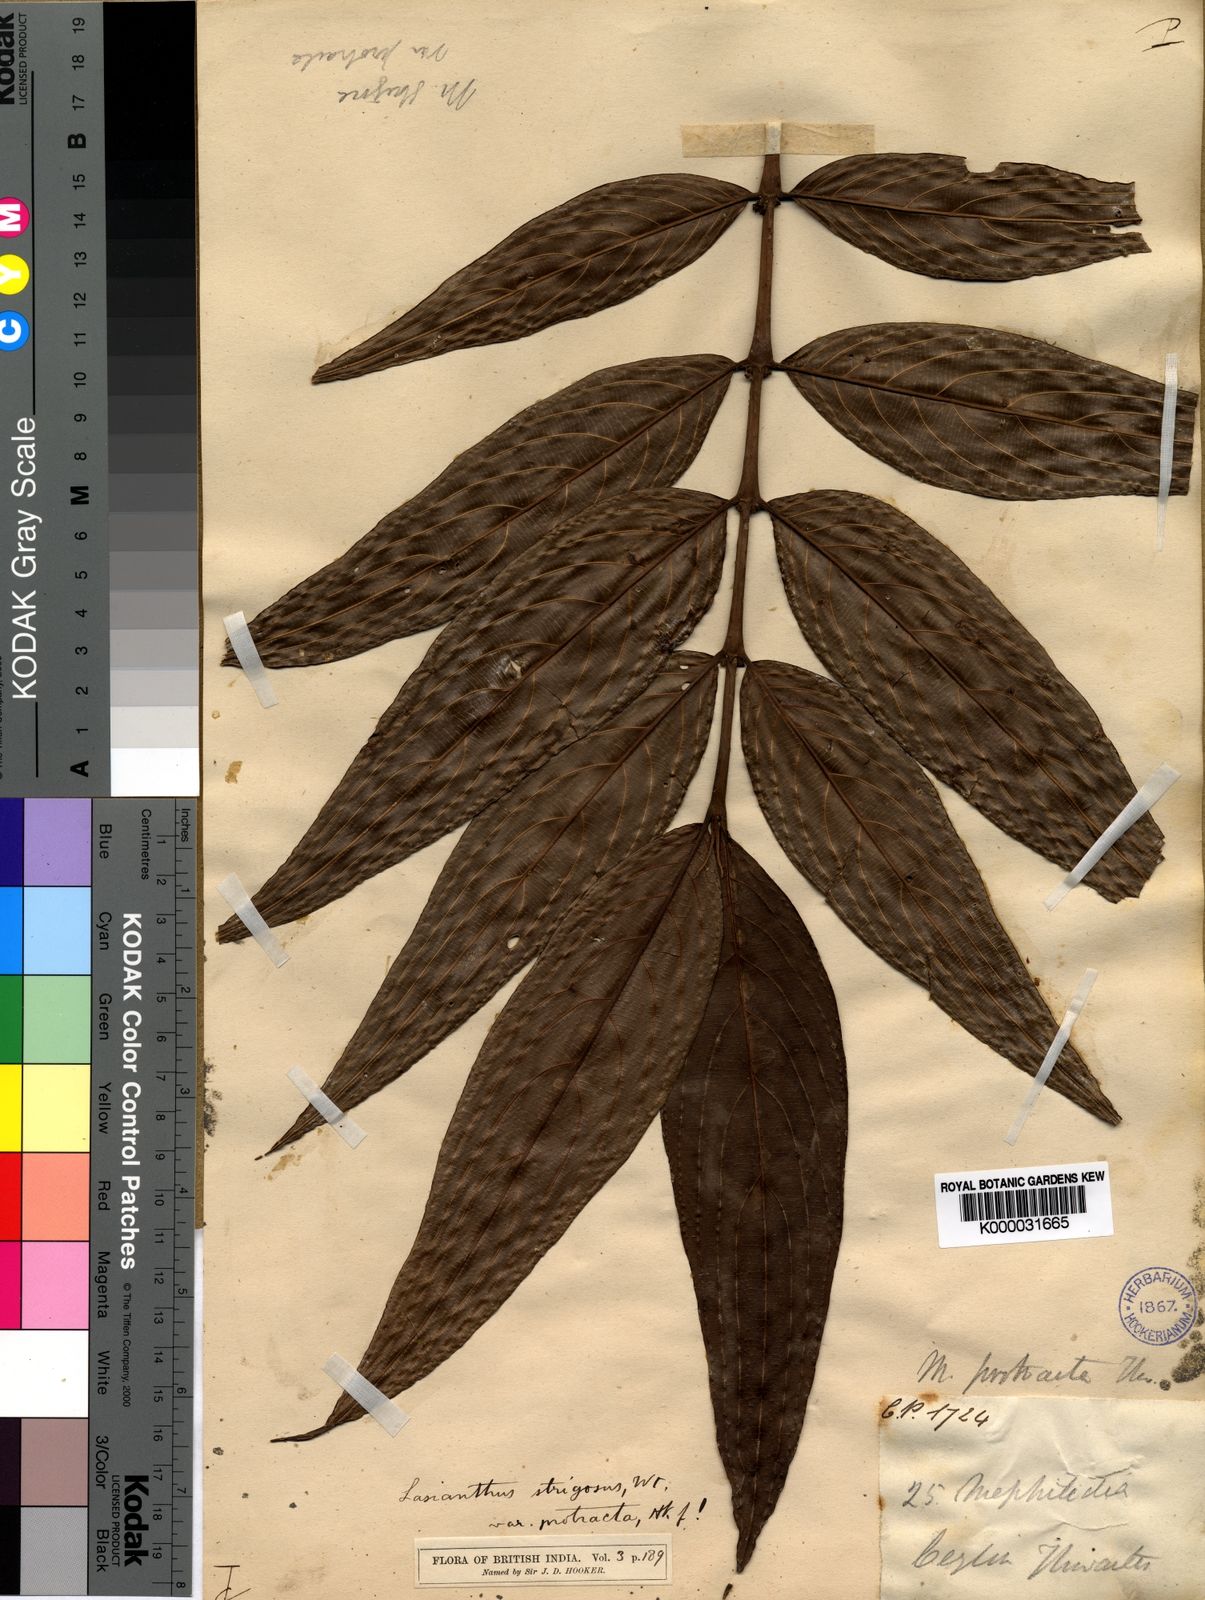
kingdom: Plantae
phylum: Tracheophyta
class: Magnoliopsida
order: Gentianales
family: Rubiaceae
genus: Lasianthus
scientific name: Lasianthus strigosus
